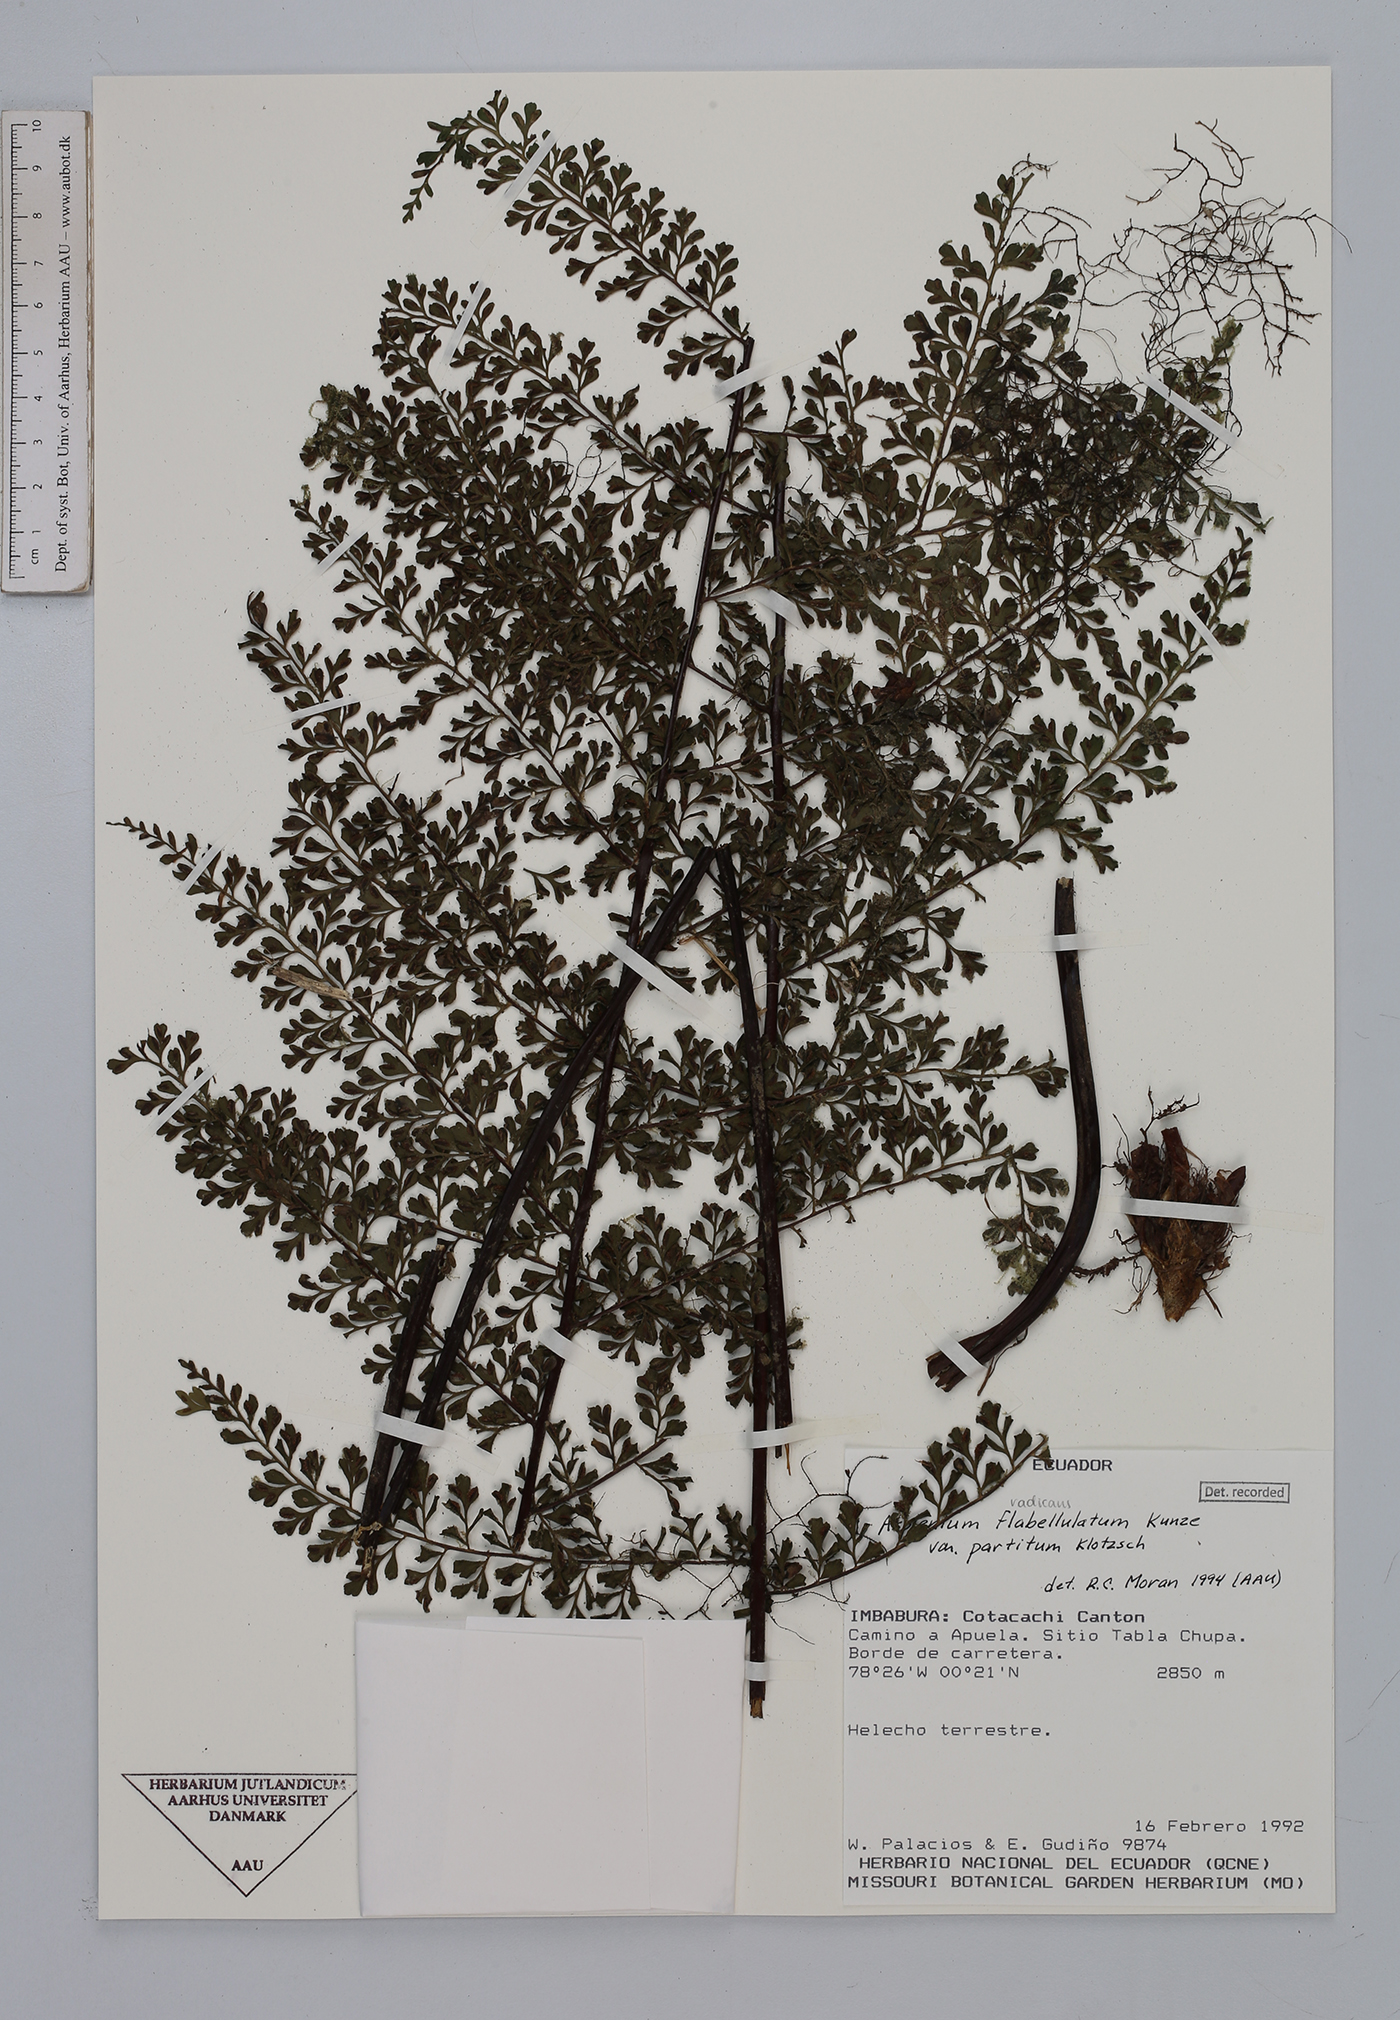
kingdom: Plantae
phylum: Tracheophyta
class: Polypodiopsida
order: Polypodiales
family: Aspleniaceae
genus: Asplenium
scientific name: Asplenium flabellulatum
